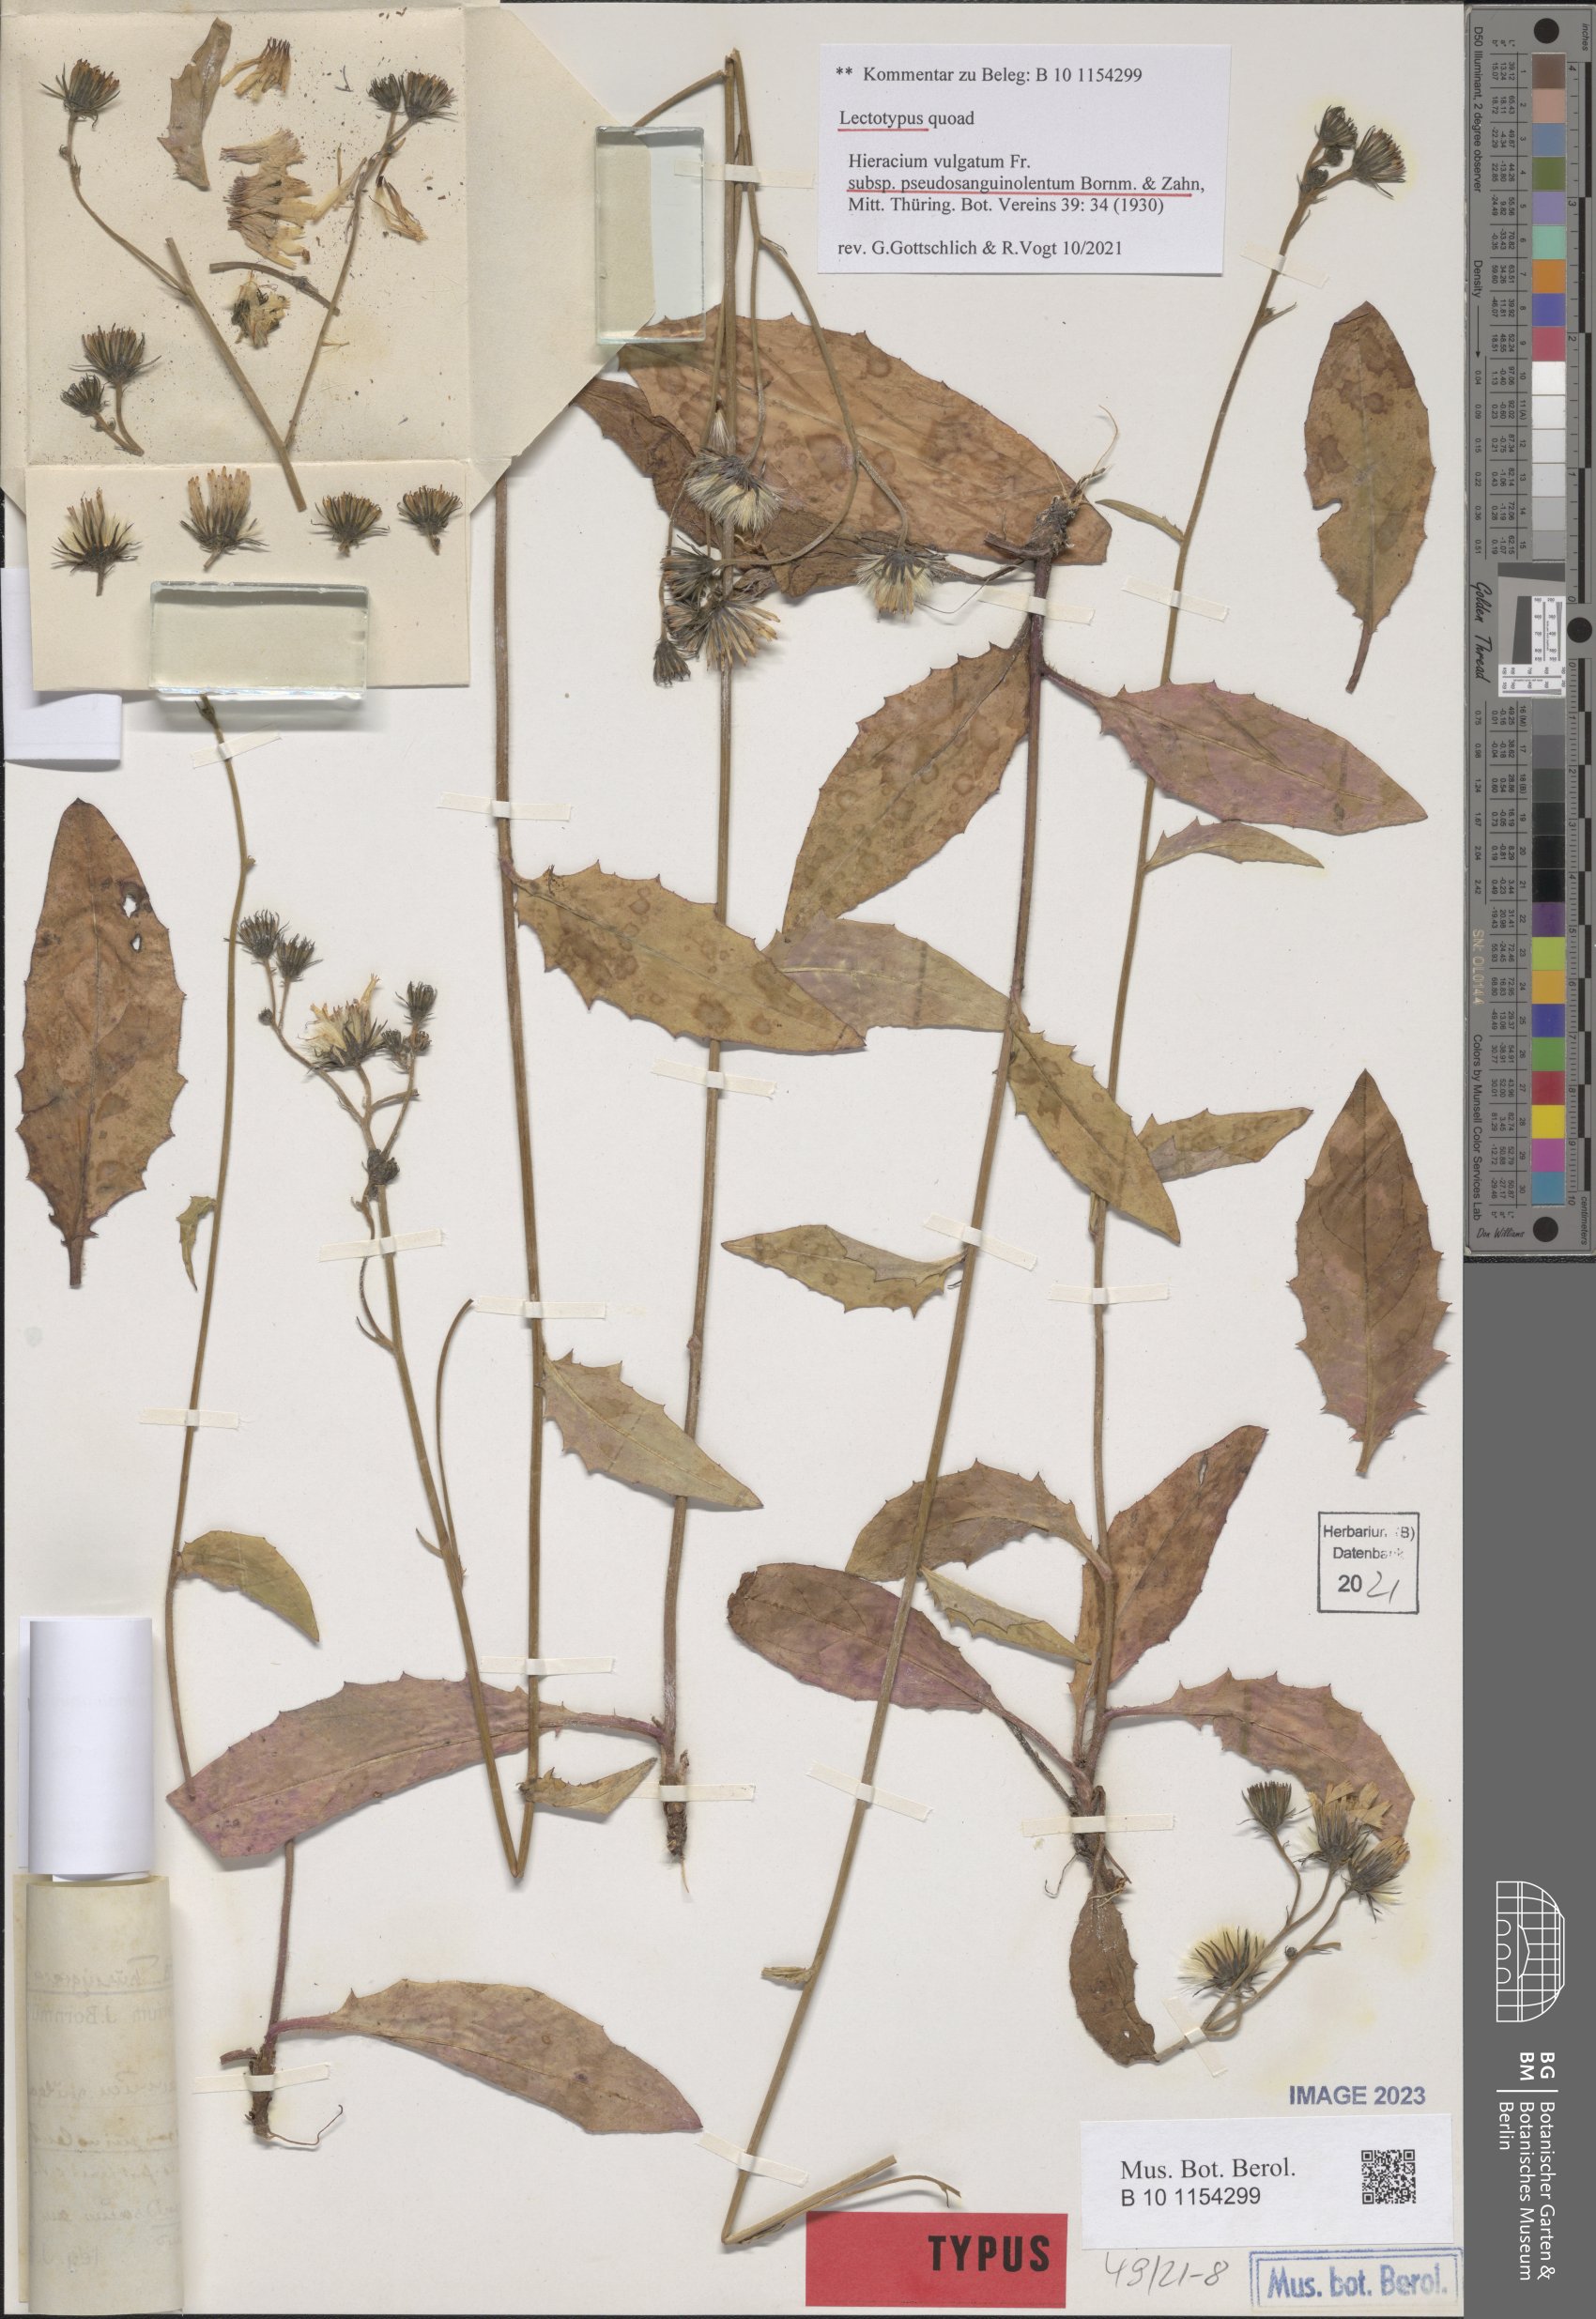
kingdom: Plantae
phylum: Tracheophyta
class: Magnoliopsida
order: Asterales
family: Asteraceae
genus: Hieracium
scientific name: Hieracium lachenalii
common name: Common hawkweed
